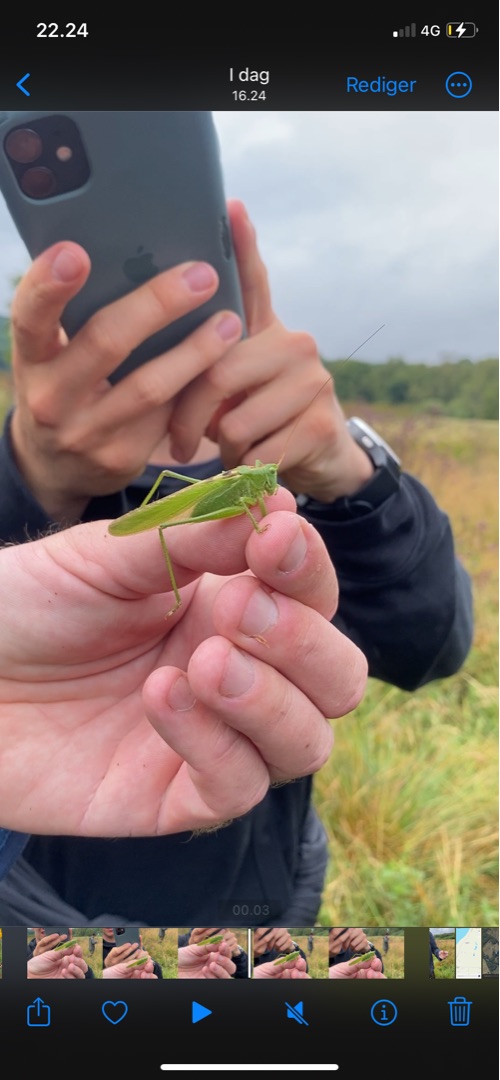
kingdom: Animalia
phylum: Arthropoda
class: Insecta
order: Orthoptera
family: Tettigoniidae
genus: Tettigonia
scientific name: Tettigonia viridissima
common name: Stor grøn løvgræshoppe
